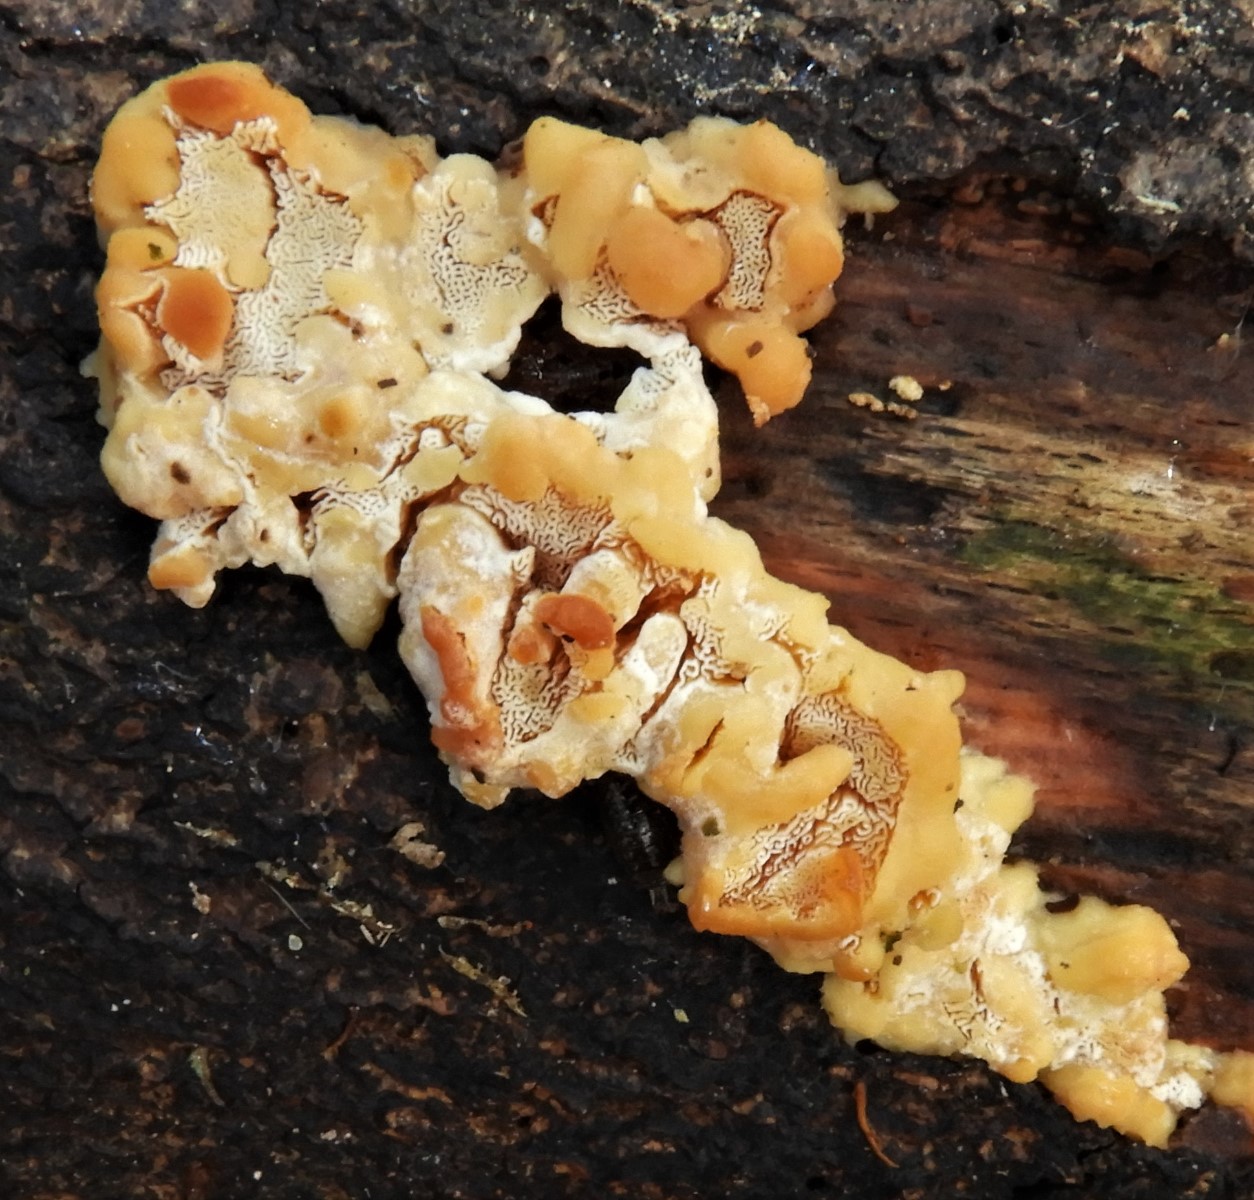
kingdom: Fungi
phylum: Basidiomycota
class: Agaricomycetes
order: Polyporales
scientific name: Polyporales
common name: poresvampordenen
